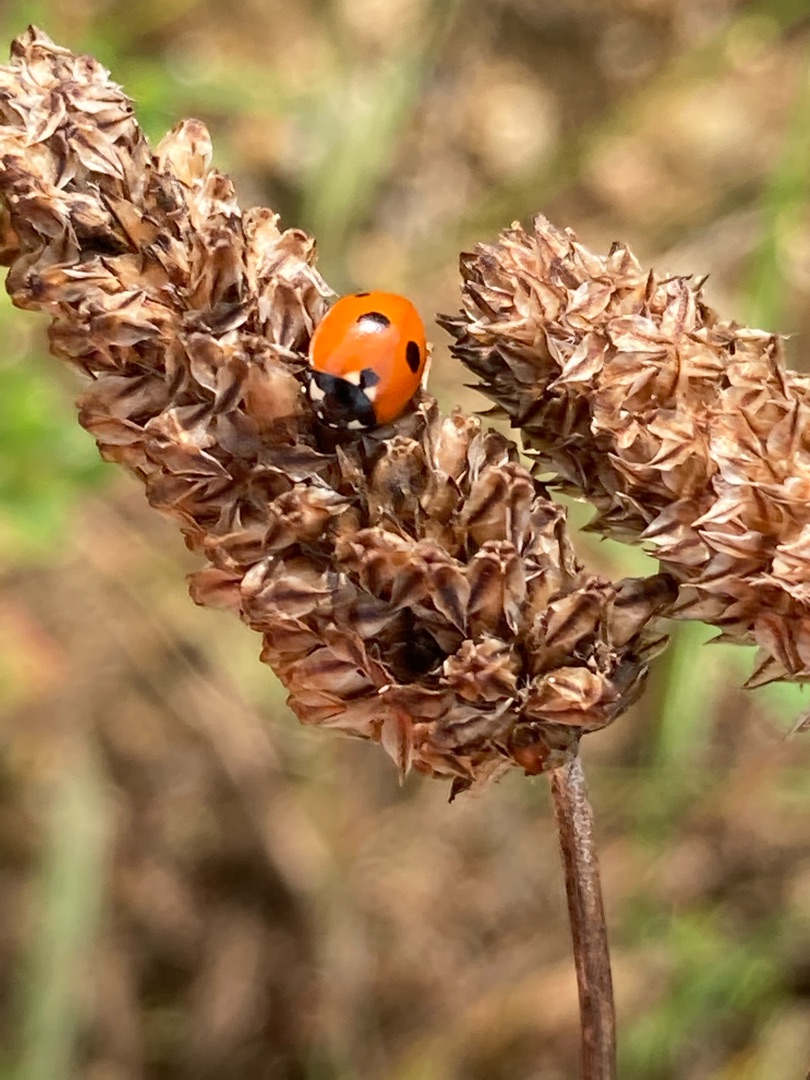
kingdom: Animalia
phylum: Arthropoda
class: Insecta
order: Coleoptera
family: Coccinellidae
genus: Coccinella
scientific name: Coccinella quinquepunctata
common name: Femplettet mariehøne
